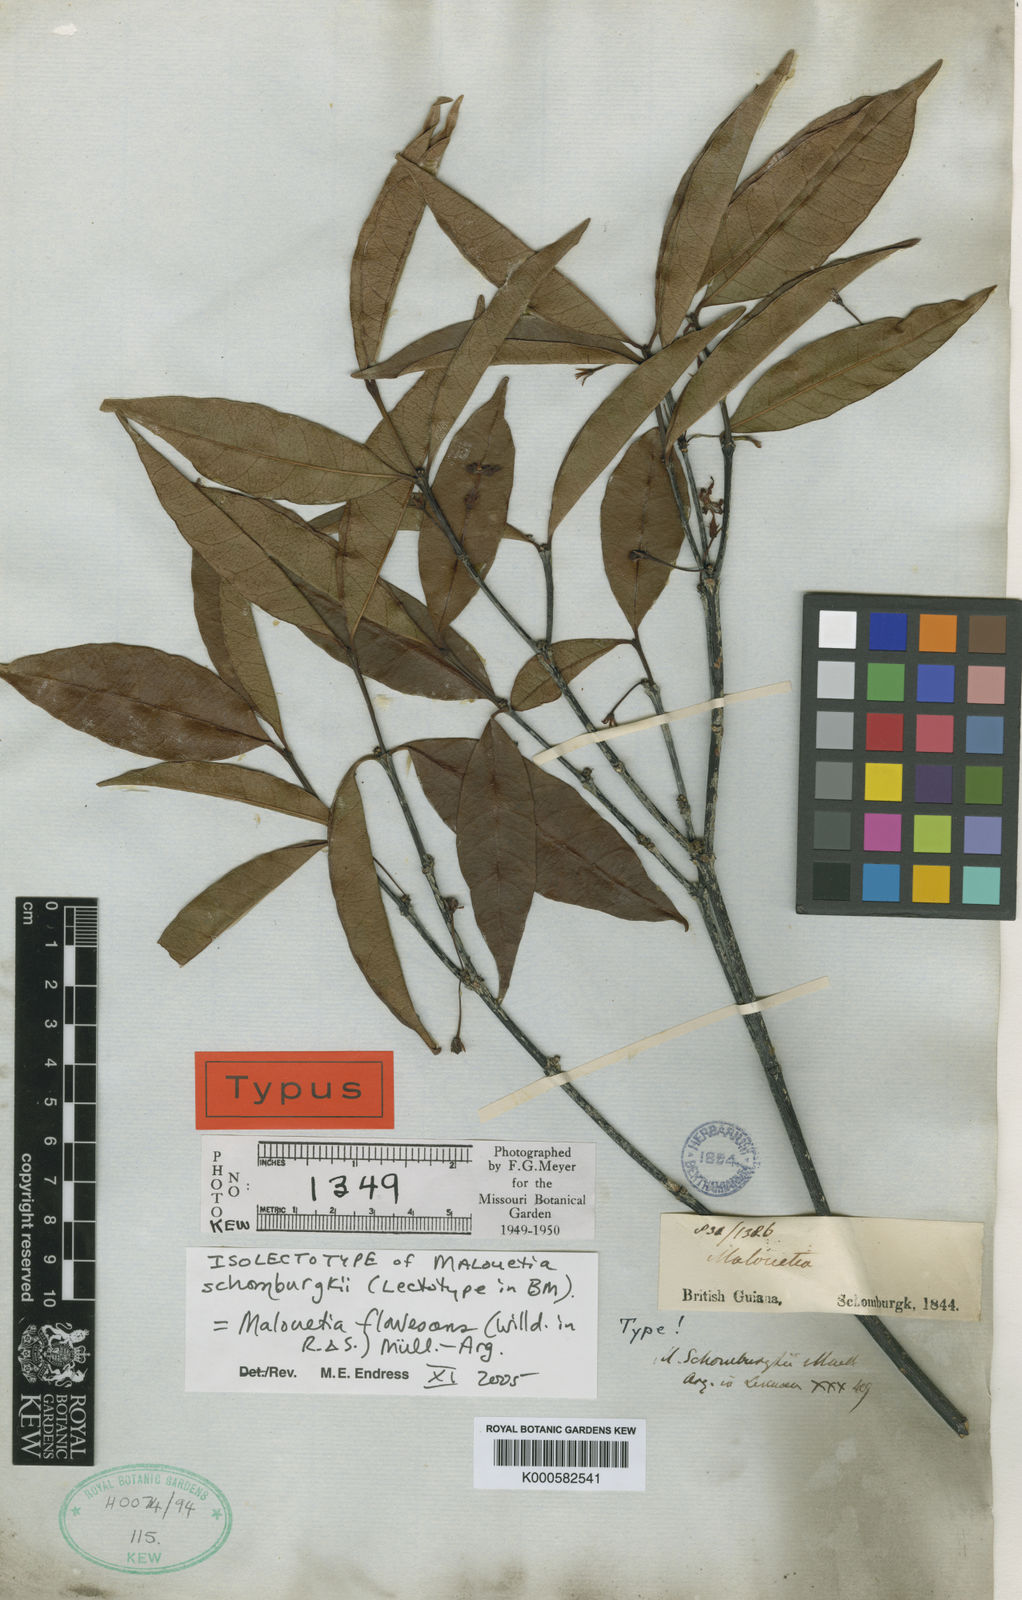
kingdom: Plantae
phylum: Tracheophyta
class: Magnoliopsida
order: Gentianales
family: Apocynaceae
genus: Malouetia
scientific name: Malouetia
